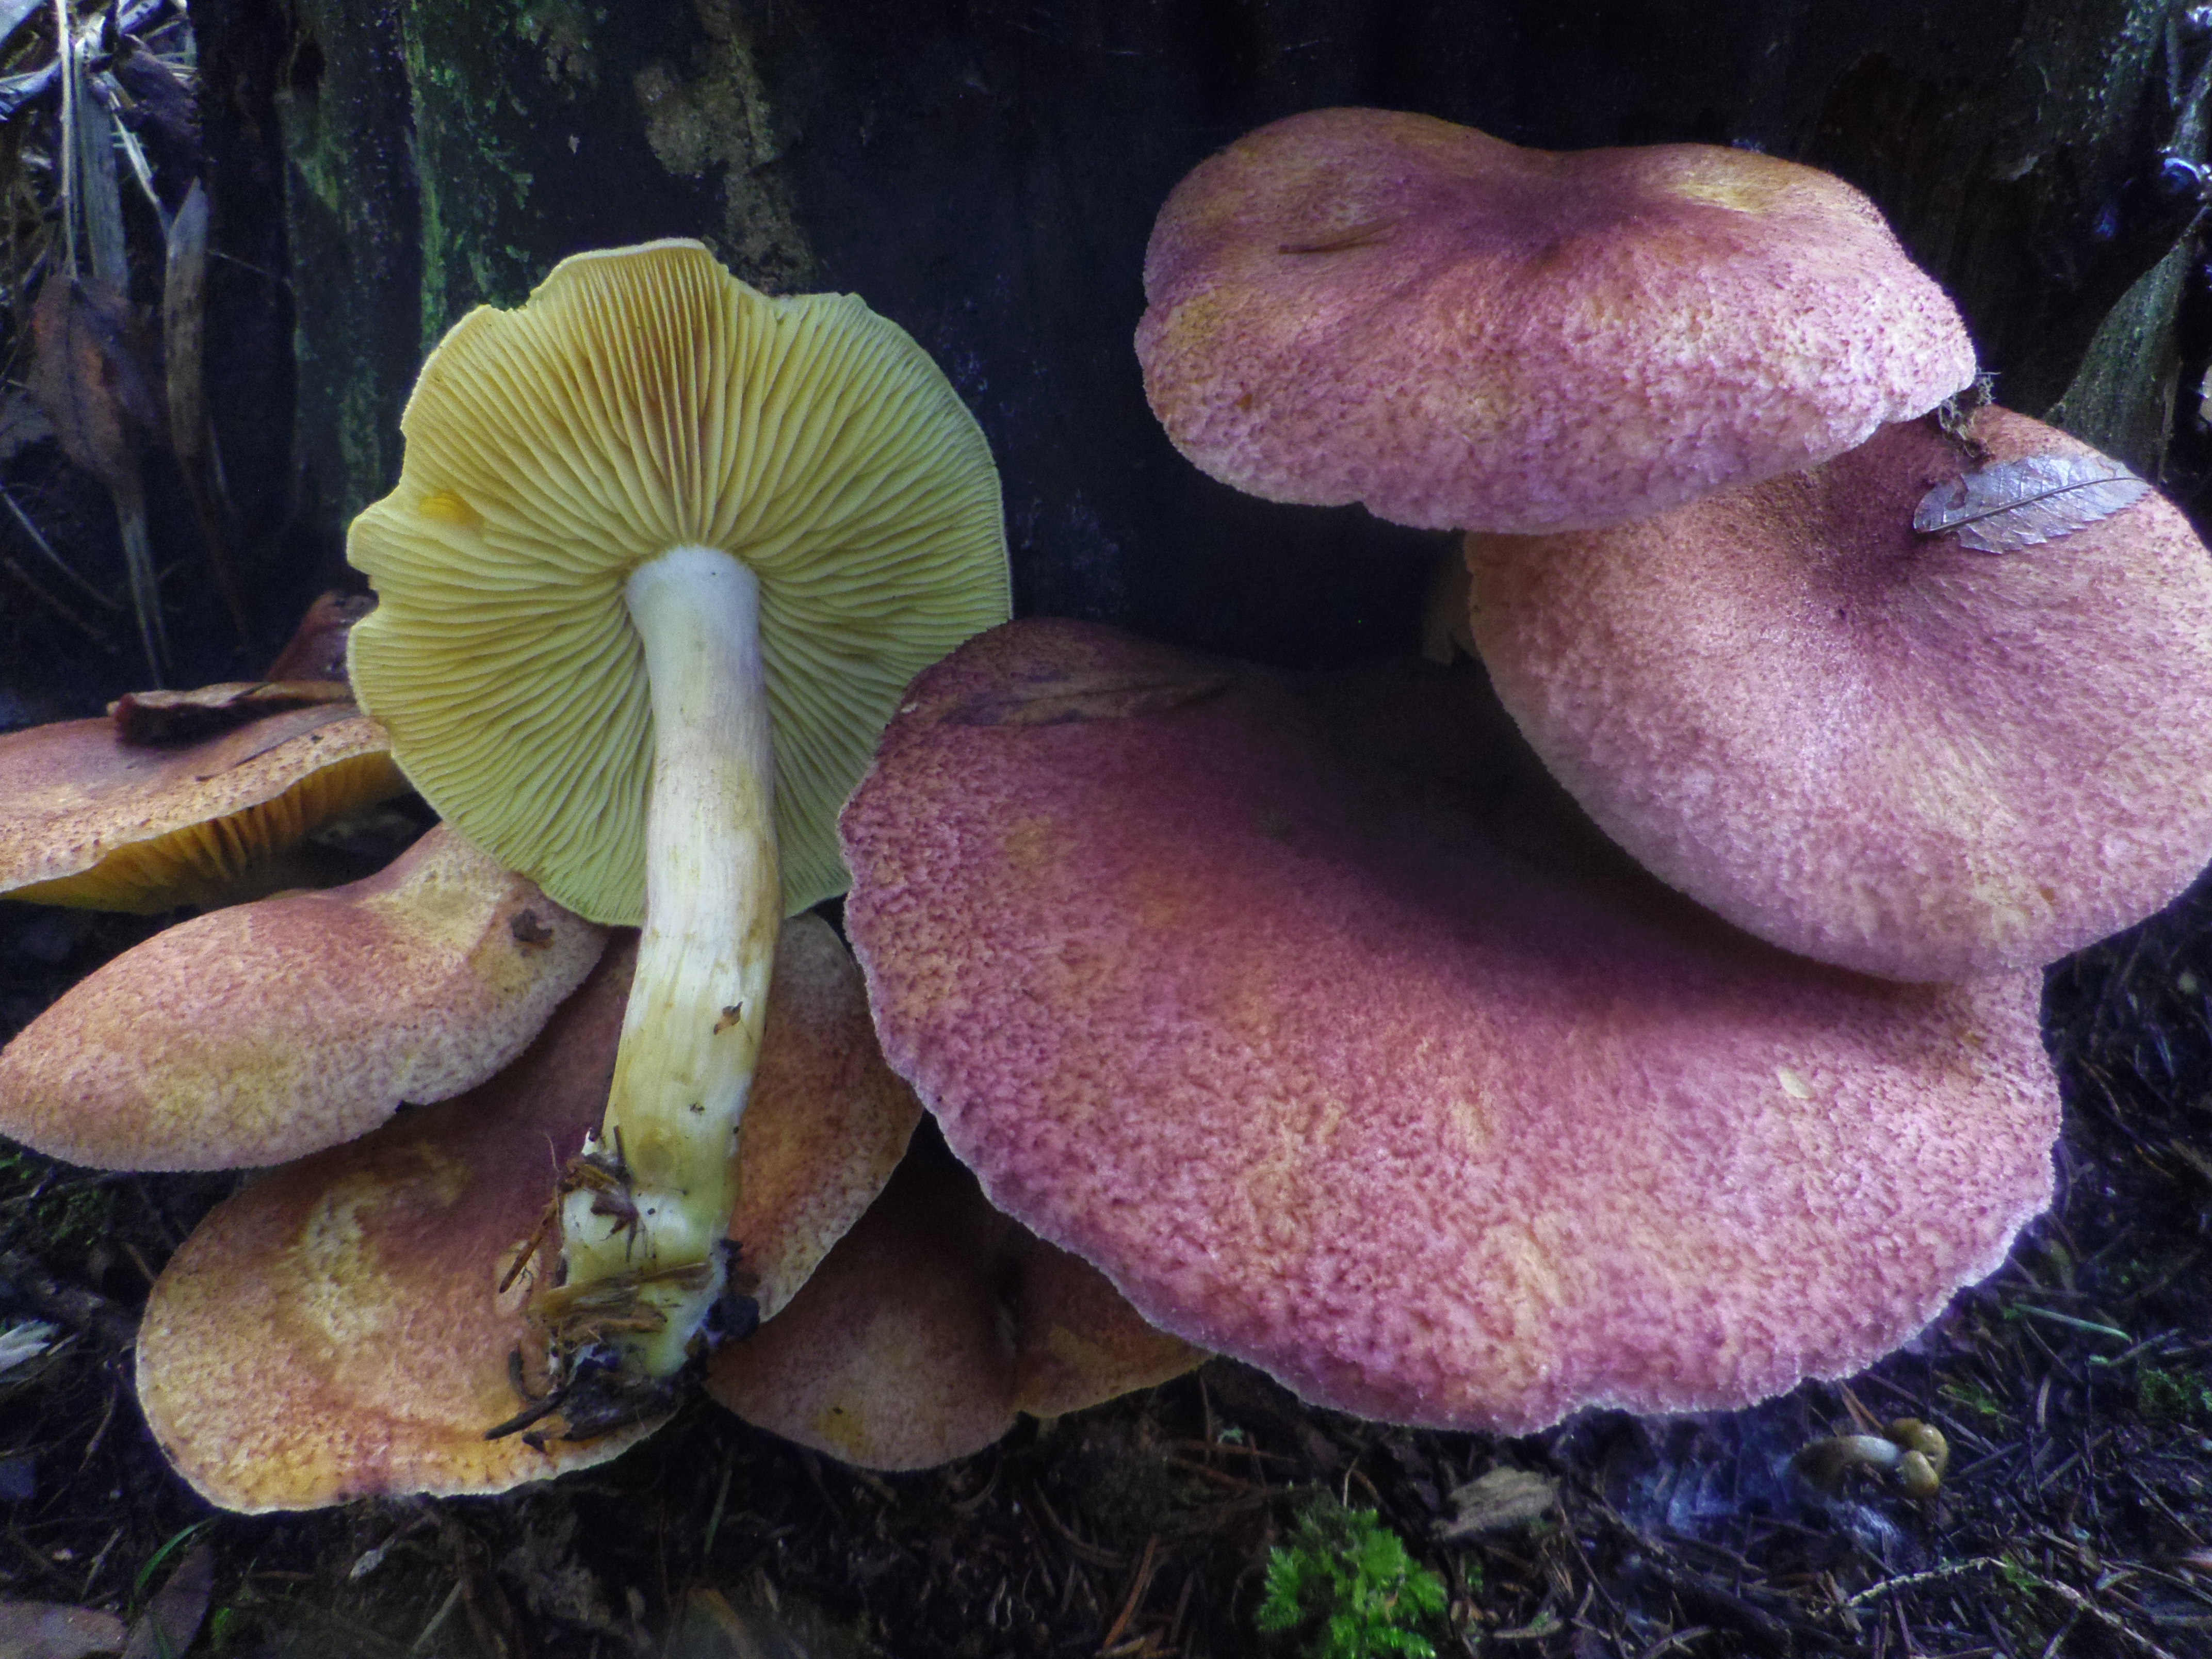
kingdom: Fungi
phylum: Basidiomycota
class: Agaricomycetes
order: Agaricales
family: Tricholomataceae
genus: Tricholomopsis
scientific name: Tricholomopsis rutilans
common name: Plums and custard
